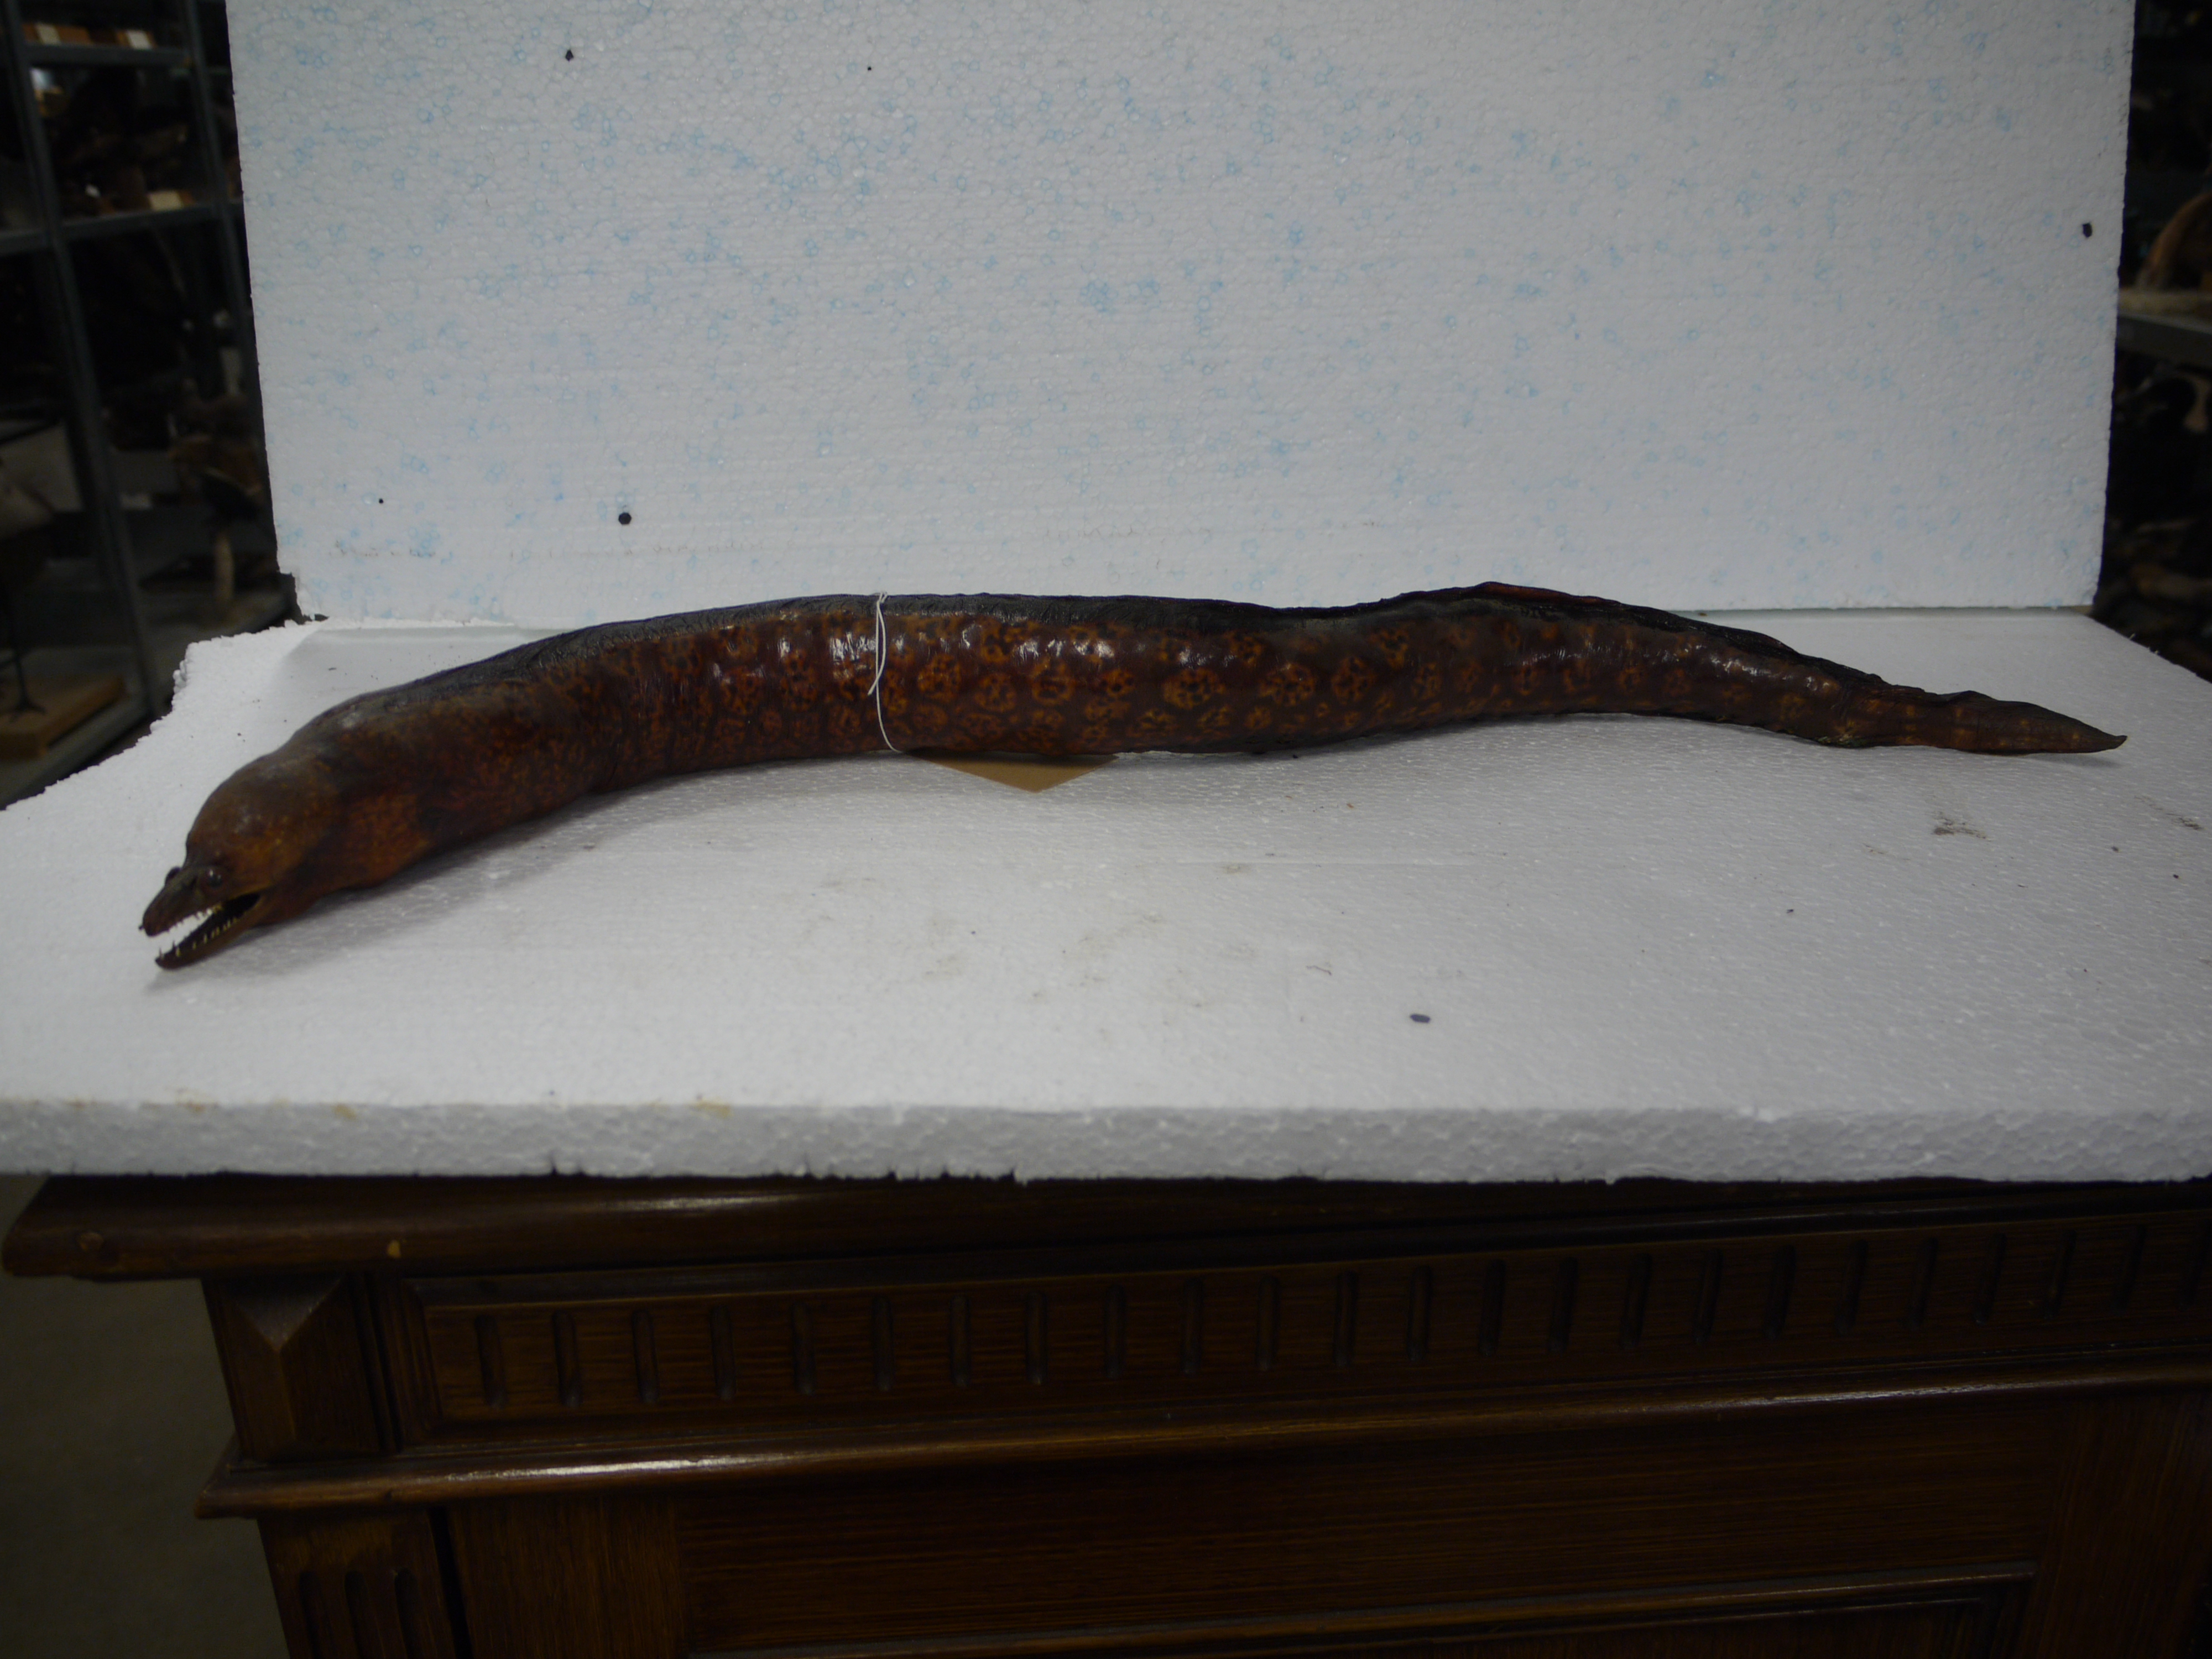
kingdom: Animalia
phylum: Chordata
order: Anguilliformes
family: Muraenidae
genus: Muraena
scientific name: Muraena helena
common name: Mediterranean moray
